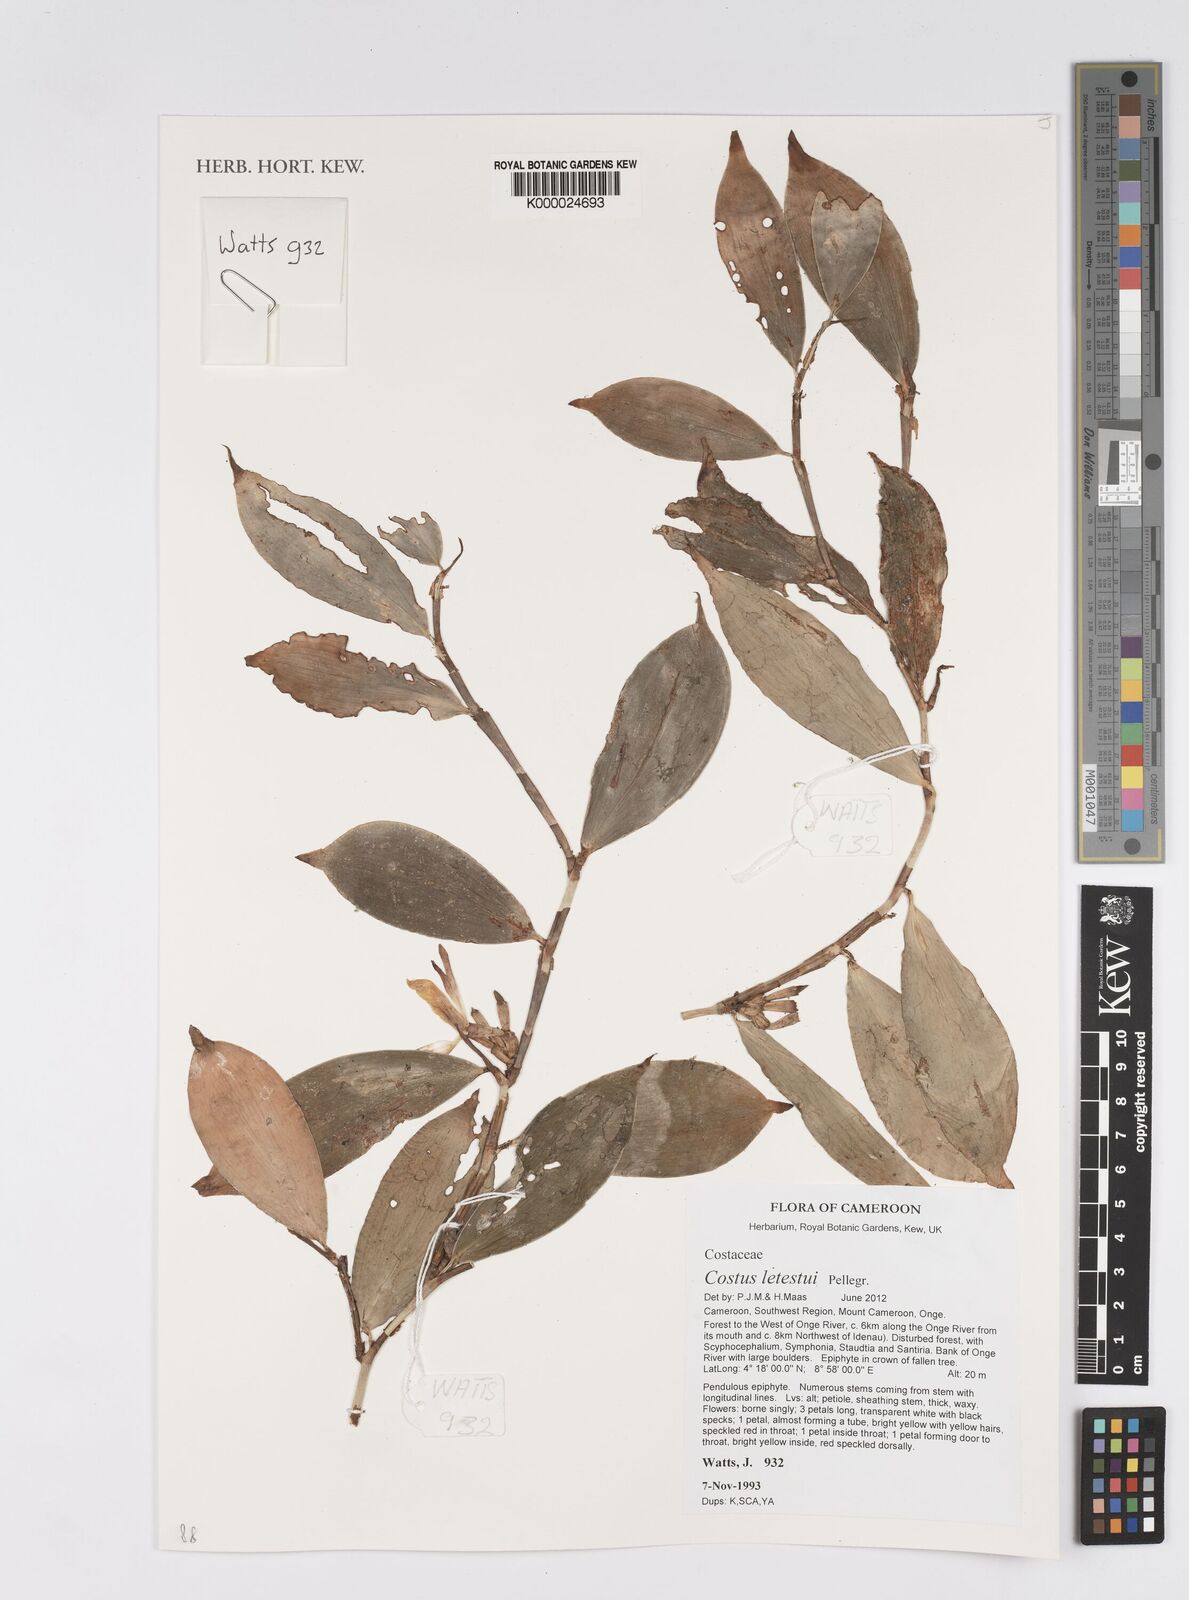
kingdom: Plantae
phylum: Tracheophyta
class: Liliopsida
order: Zingiberales
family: Costaceae
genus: Costus
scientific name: Costus lateriflorus
